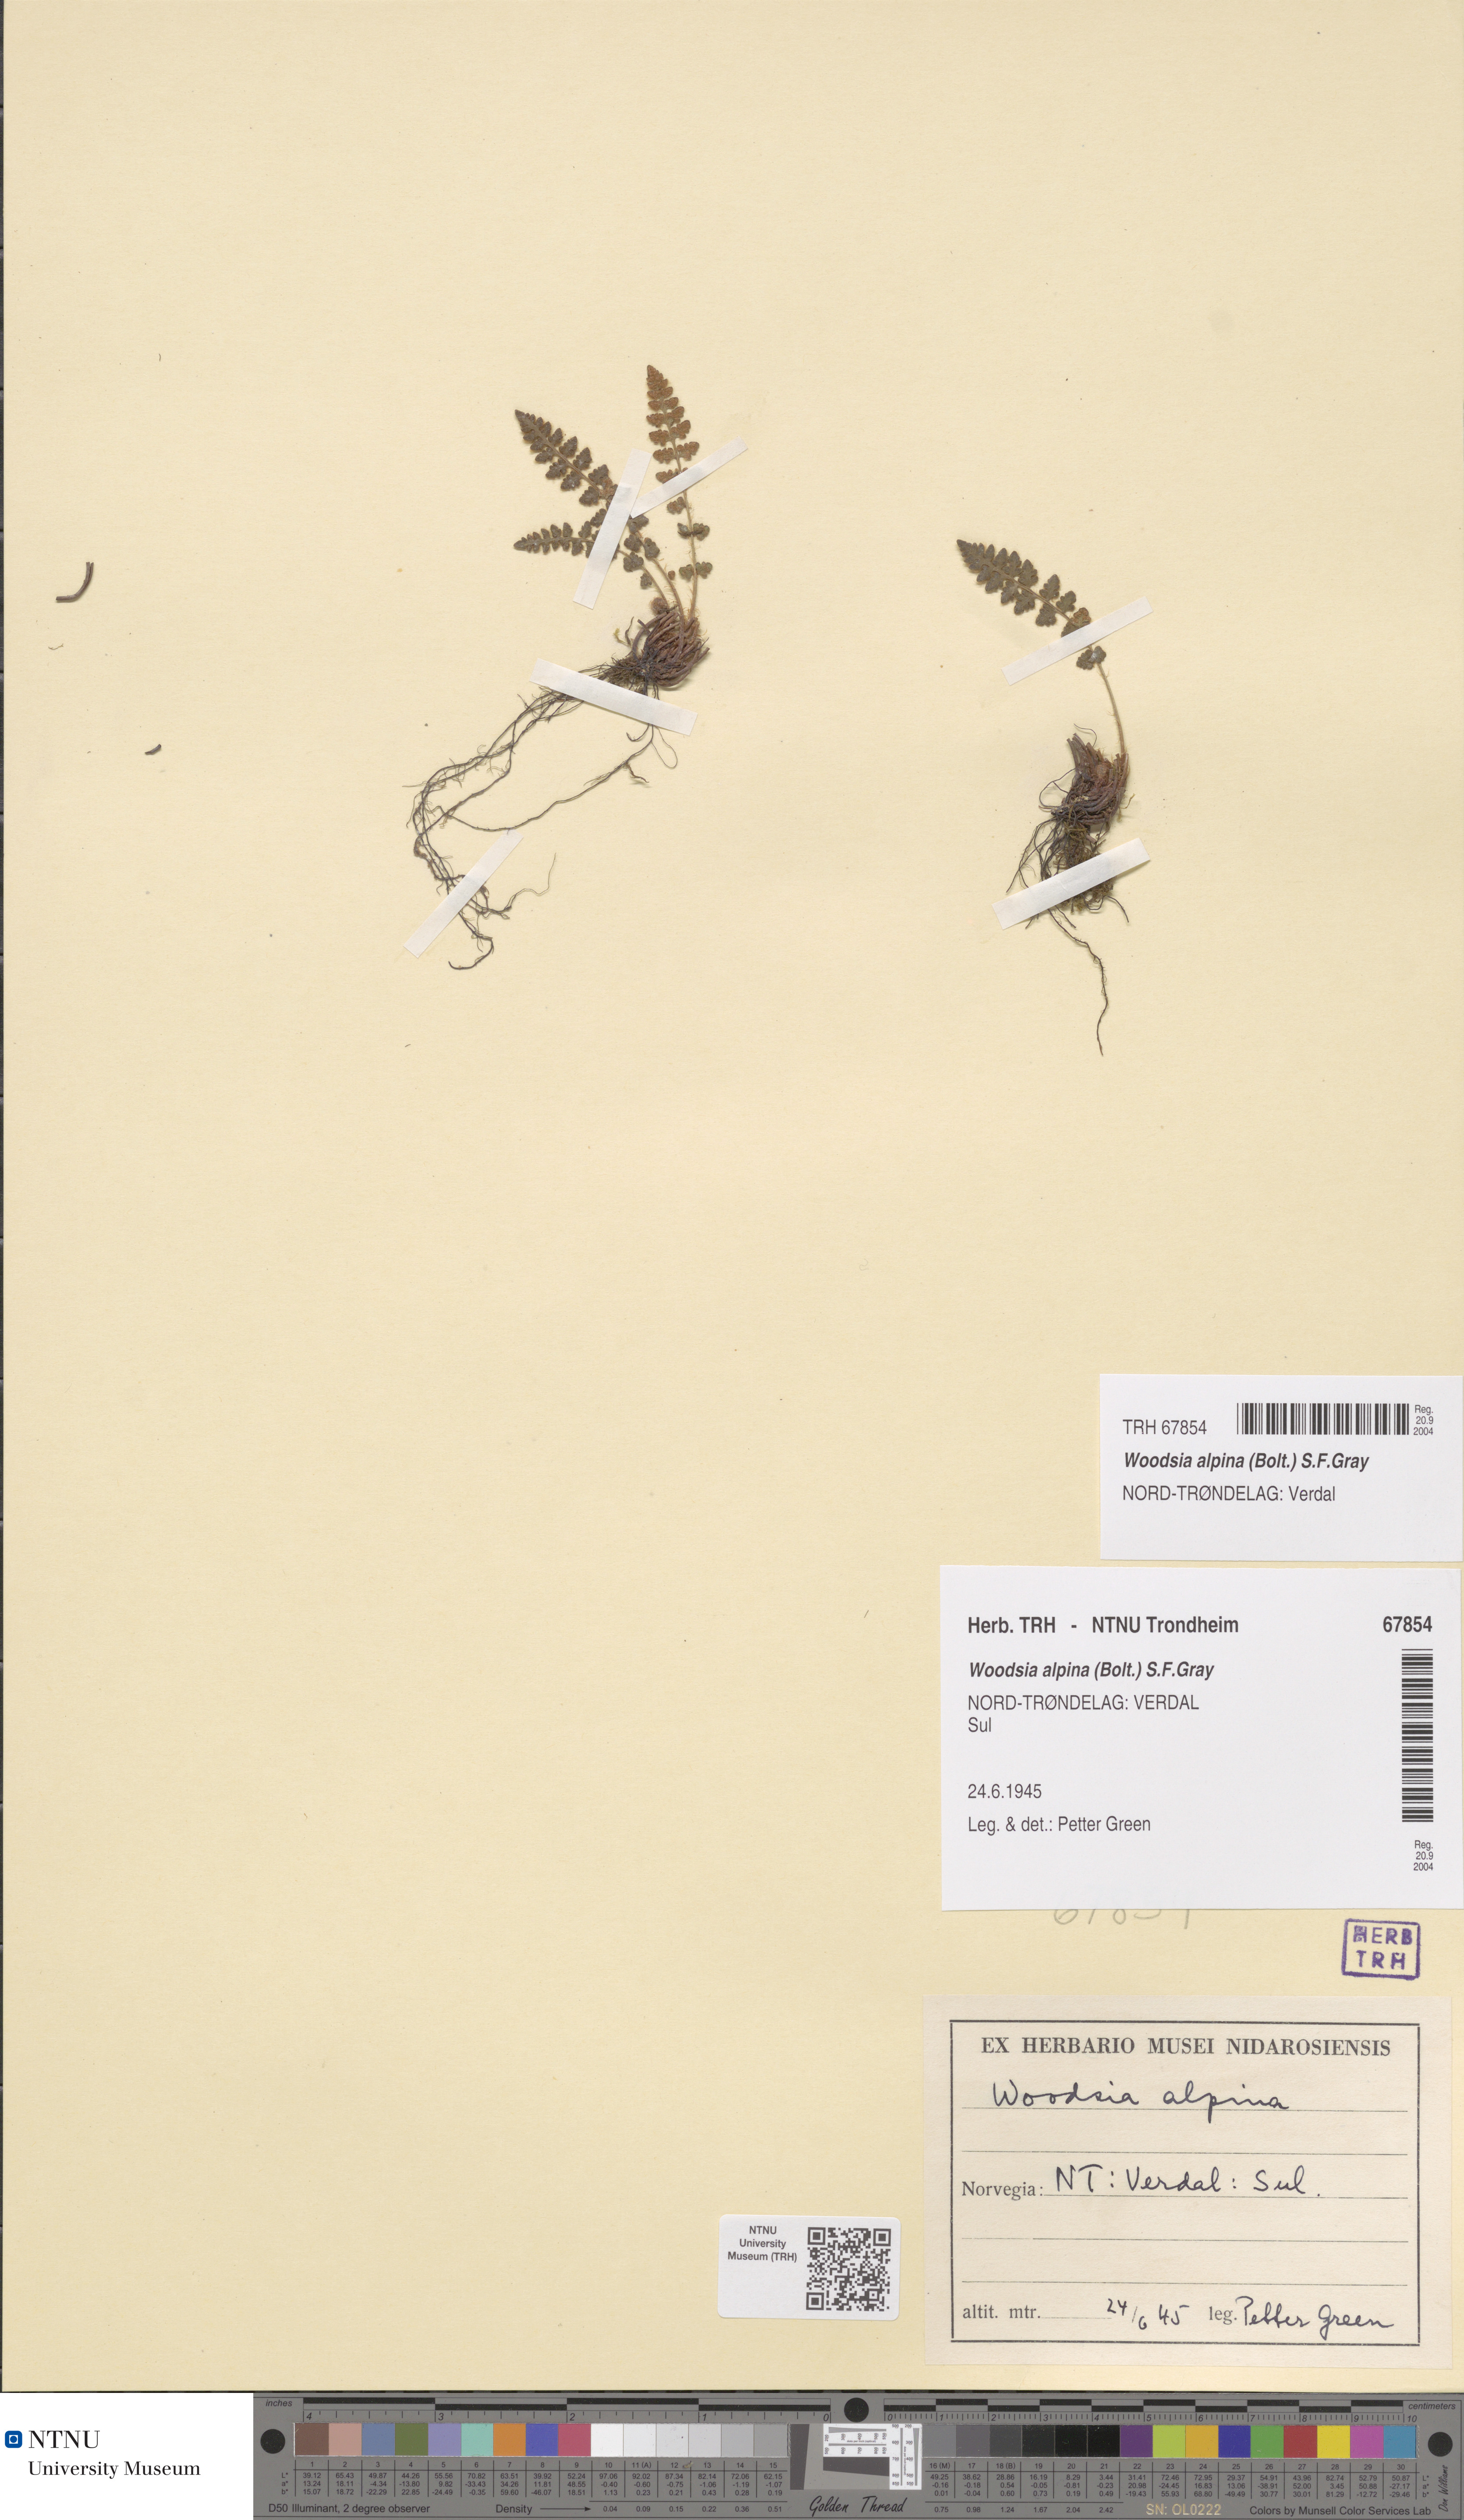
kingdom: Plantae
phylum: Tracheophyta
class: Polypodiopsida
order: Polypodiales
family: Woodsiaceae
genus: Woodsia
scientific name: Woodsia alpina
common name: Alpine woodsia
